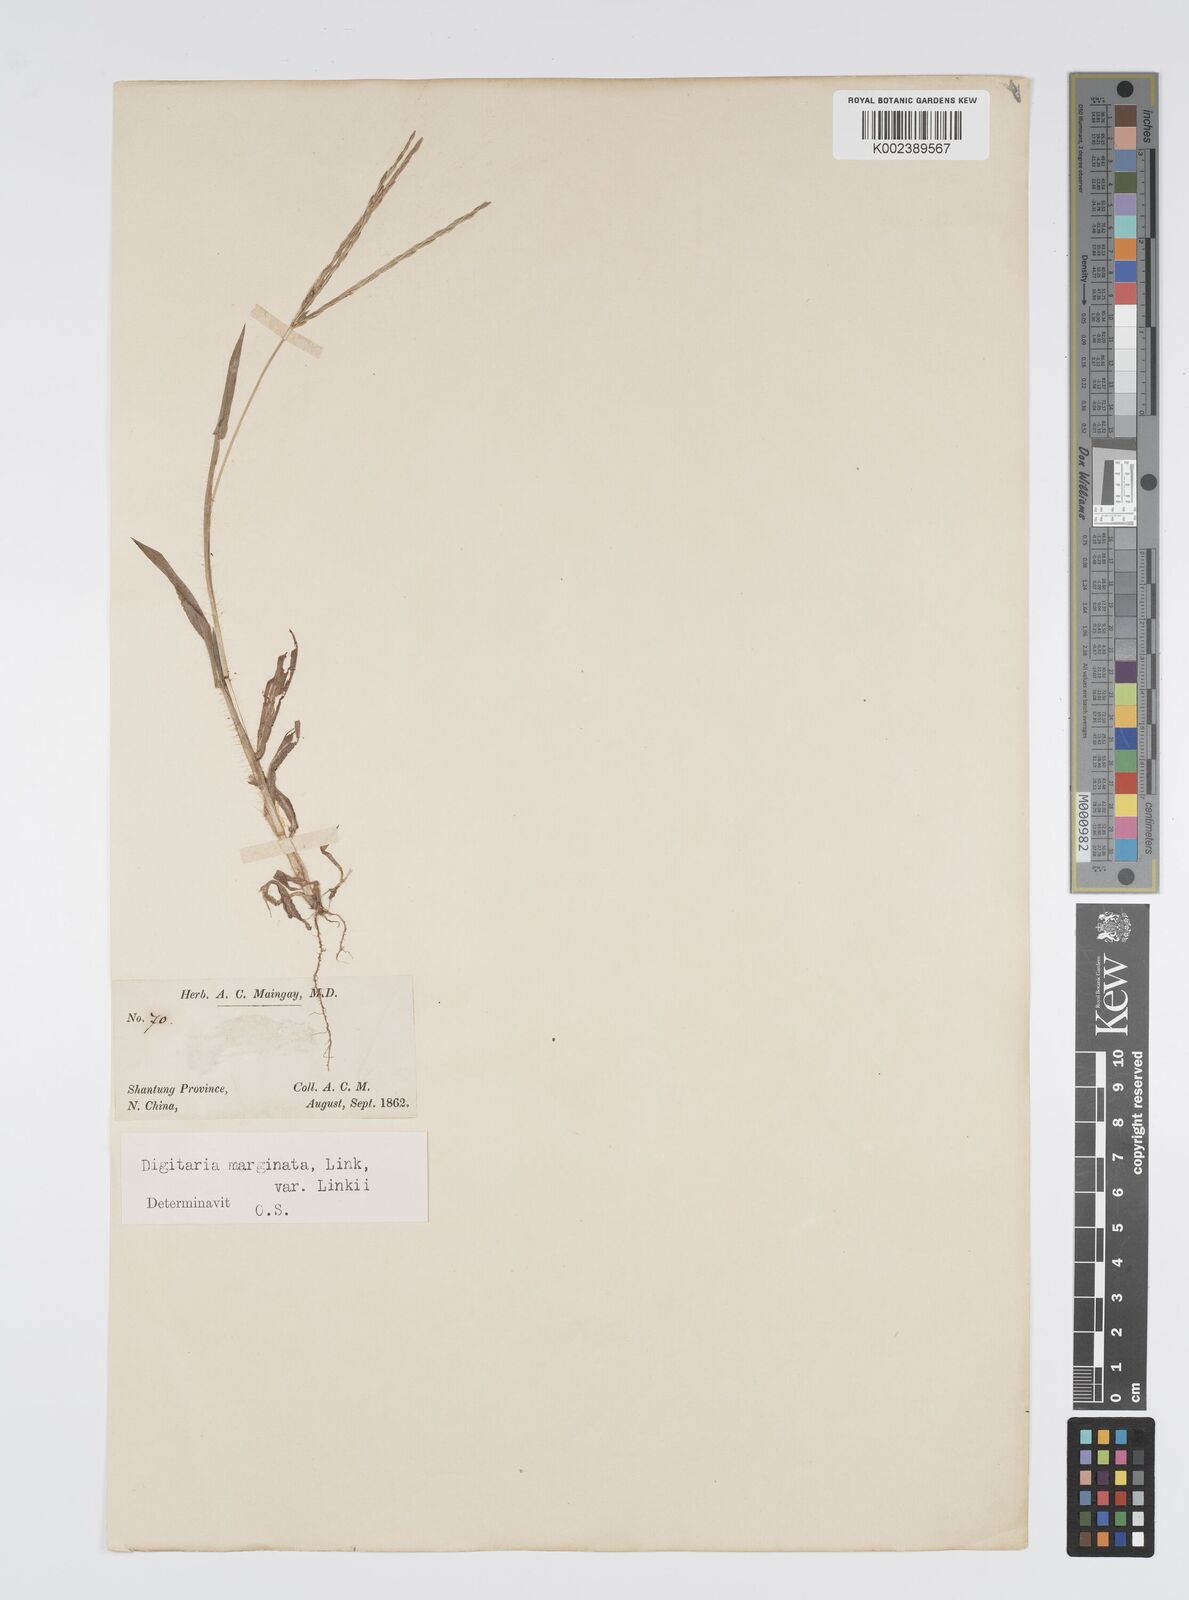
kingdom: Plantae
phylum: Tracheophyta
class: Liliopsida
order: Poales
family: Poaceae
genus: Digitaria
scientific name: Digitaria ciliaris
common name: Tropical finger-grass
